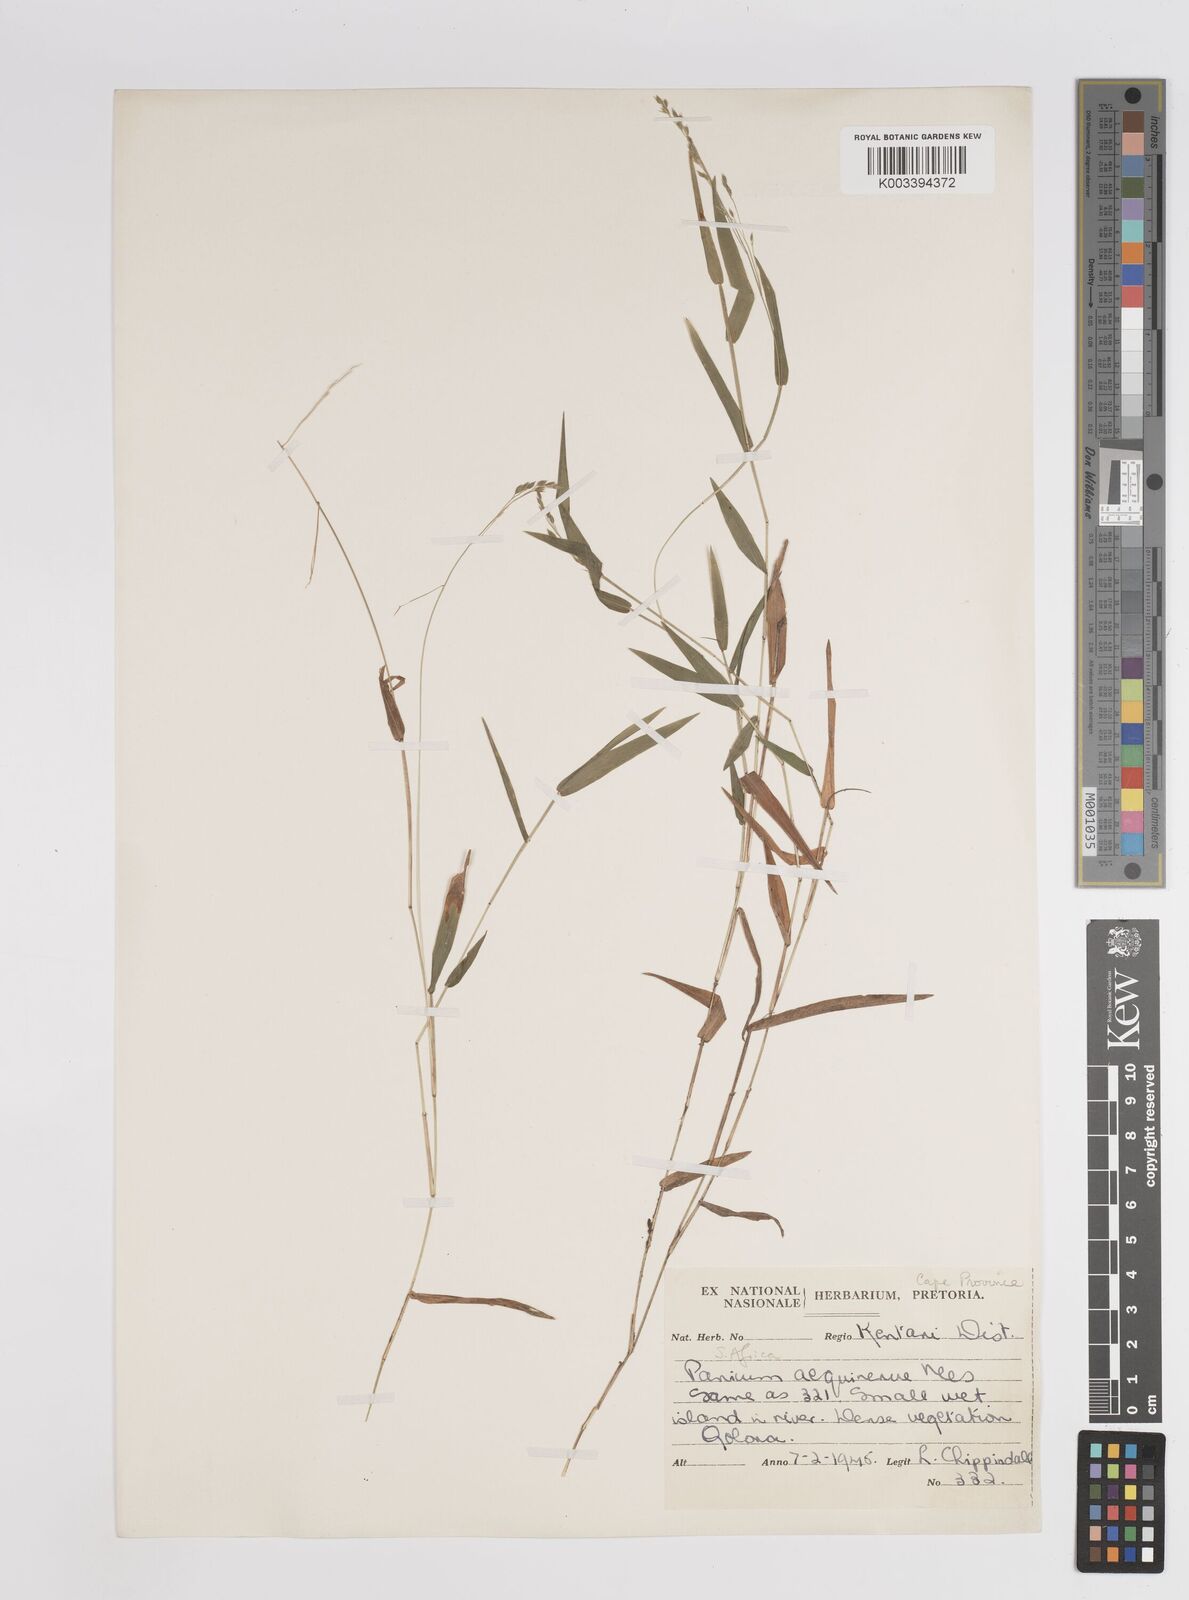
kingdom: Plantae
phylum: Tracheophyta
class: Liliopsida
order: Poales
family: Poaceae
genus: Panicum
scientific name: Panicum aequinerve
